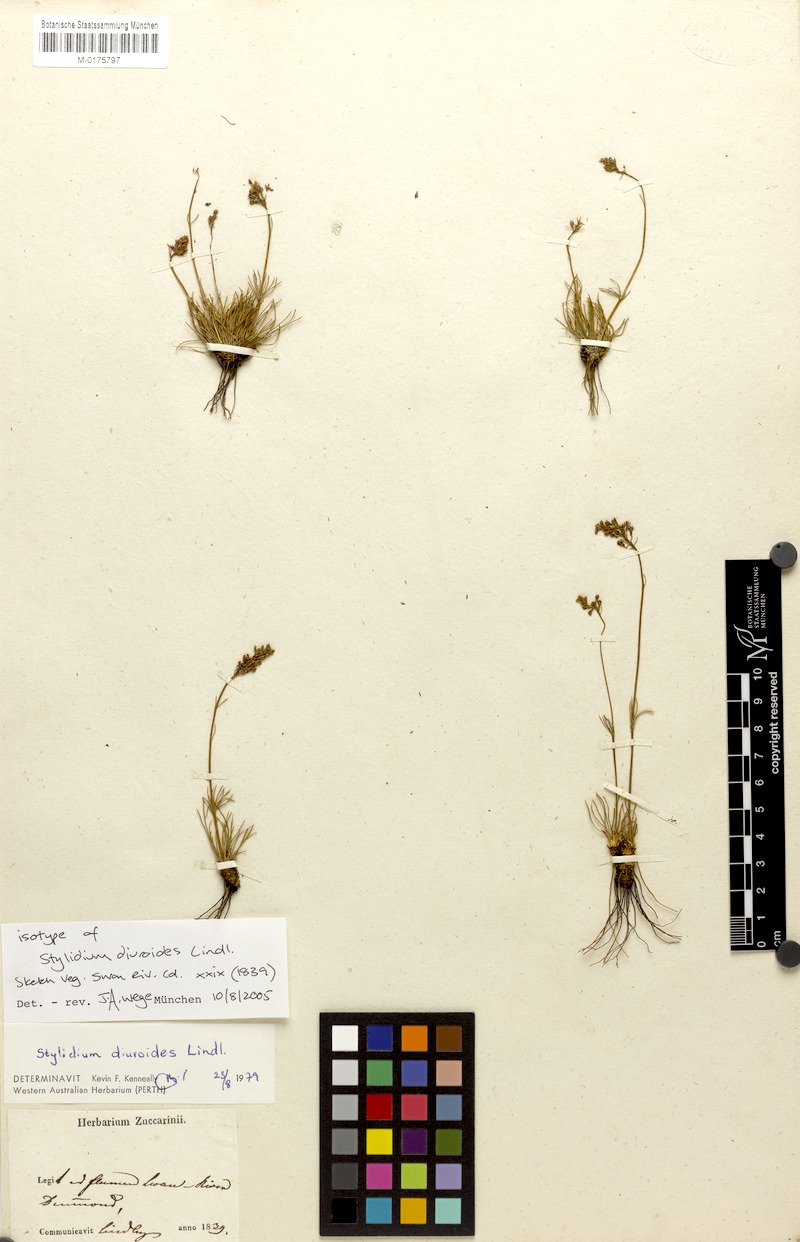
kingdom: Plantae
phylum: Tracheophyta
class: Magnoliopsida
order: Asterales
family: Stylidiaceae
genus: Stylidium
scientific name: Stylidium diuroides
